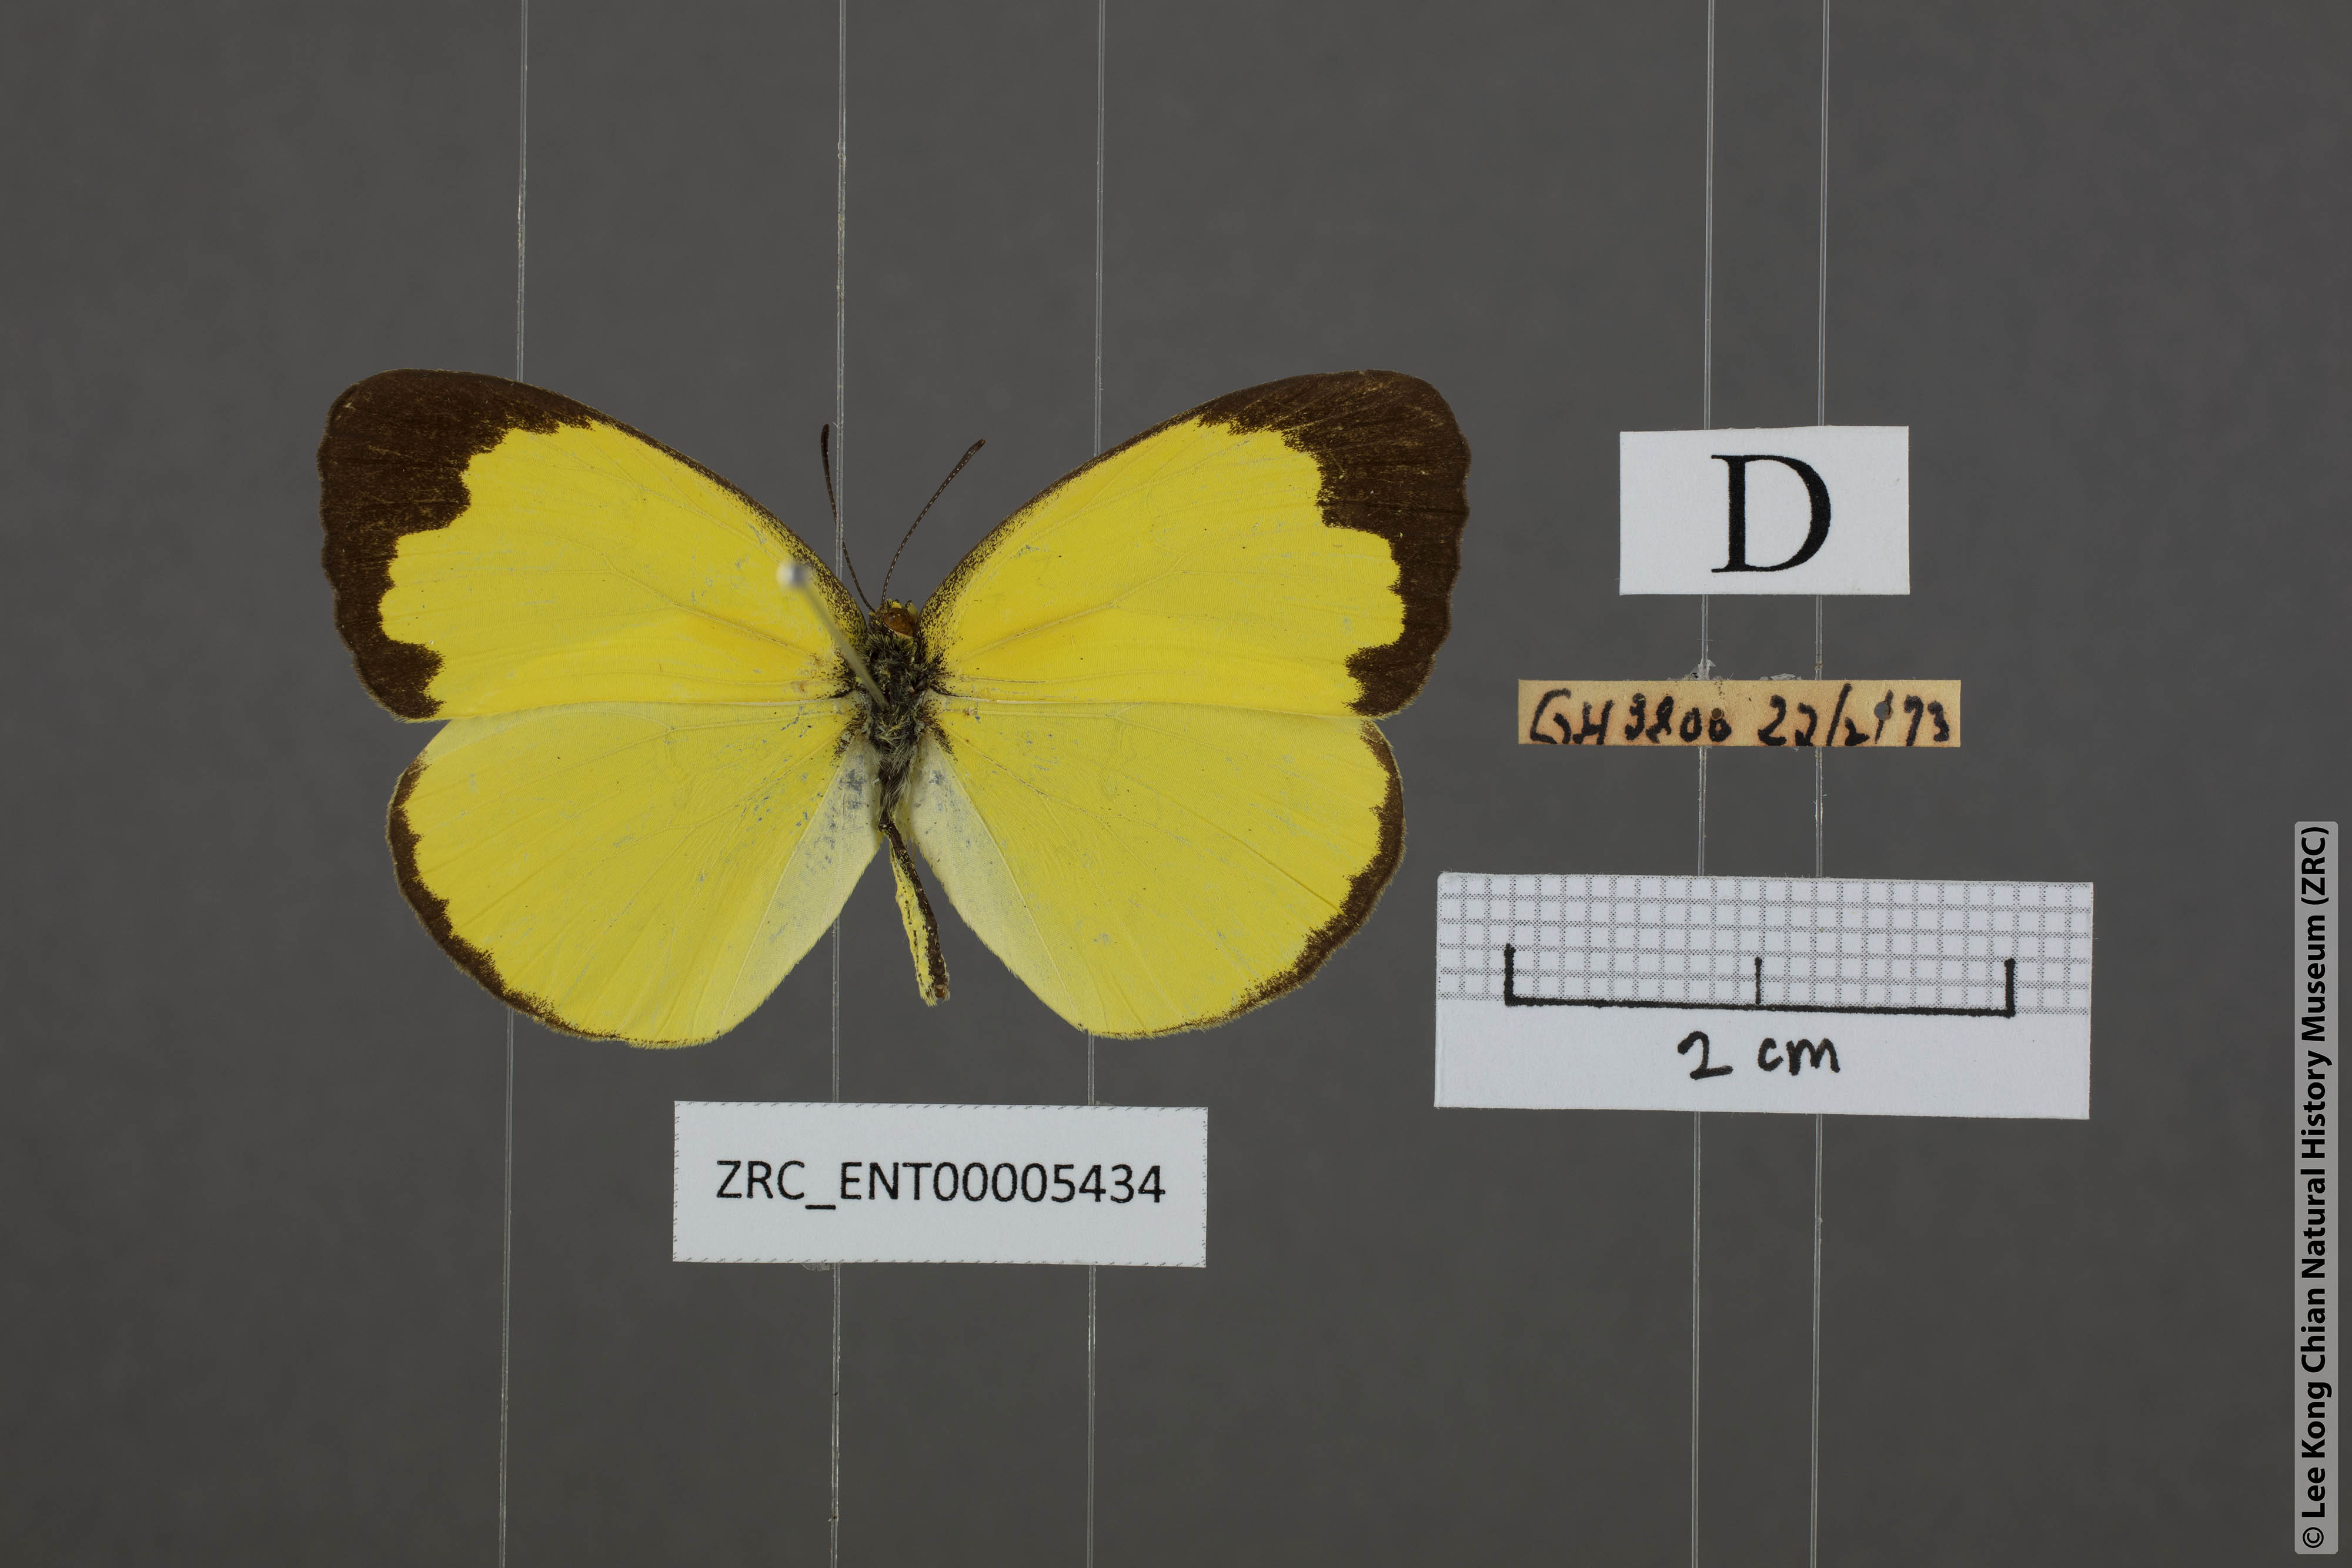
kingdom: Animalia
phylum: Arthropoda
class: Insecta
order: Lepidoptera
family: Pieridae
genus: Eurema
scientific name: Eurema blanda
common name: Three-spot grass yellow
